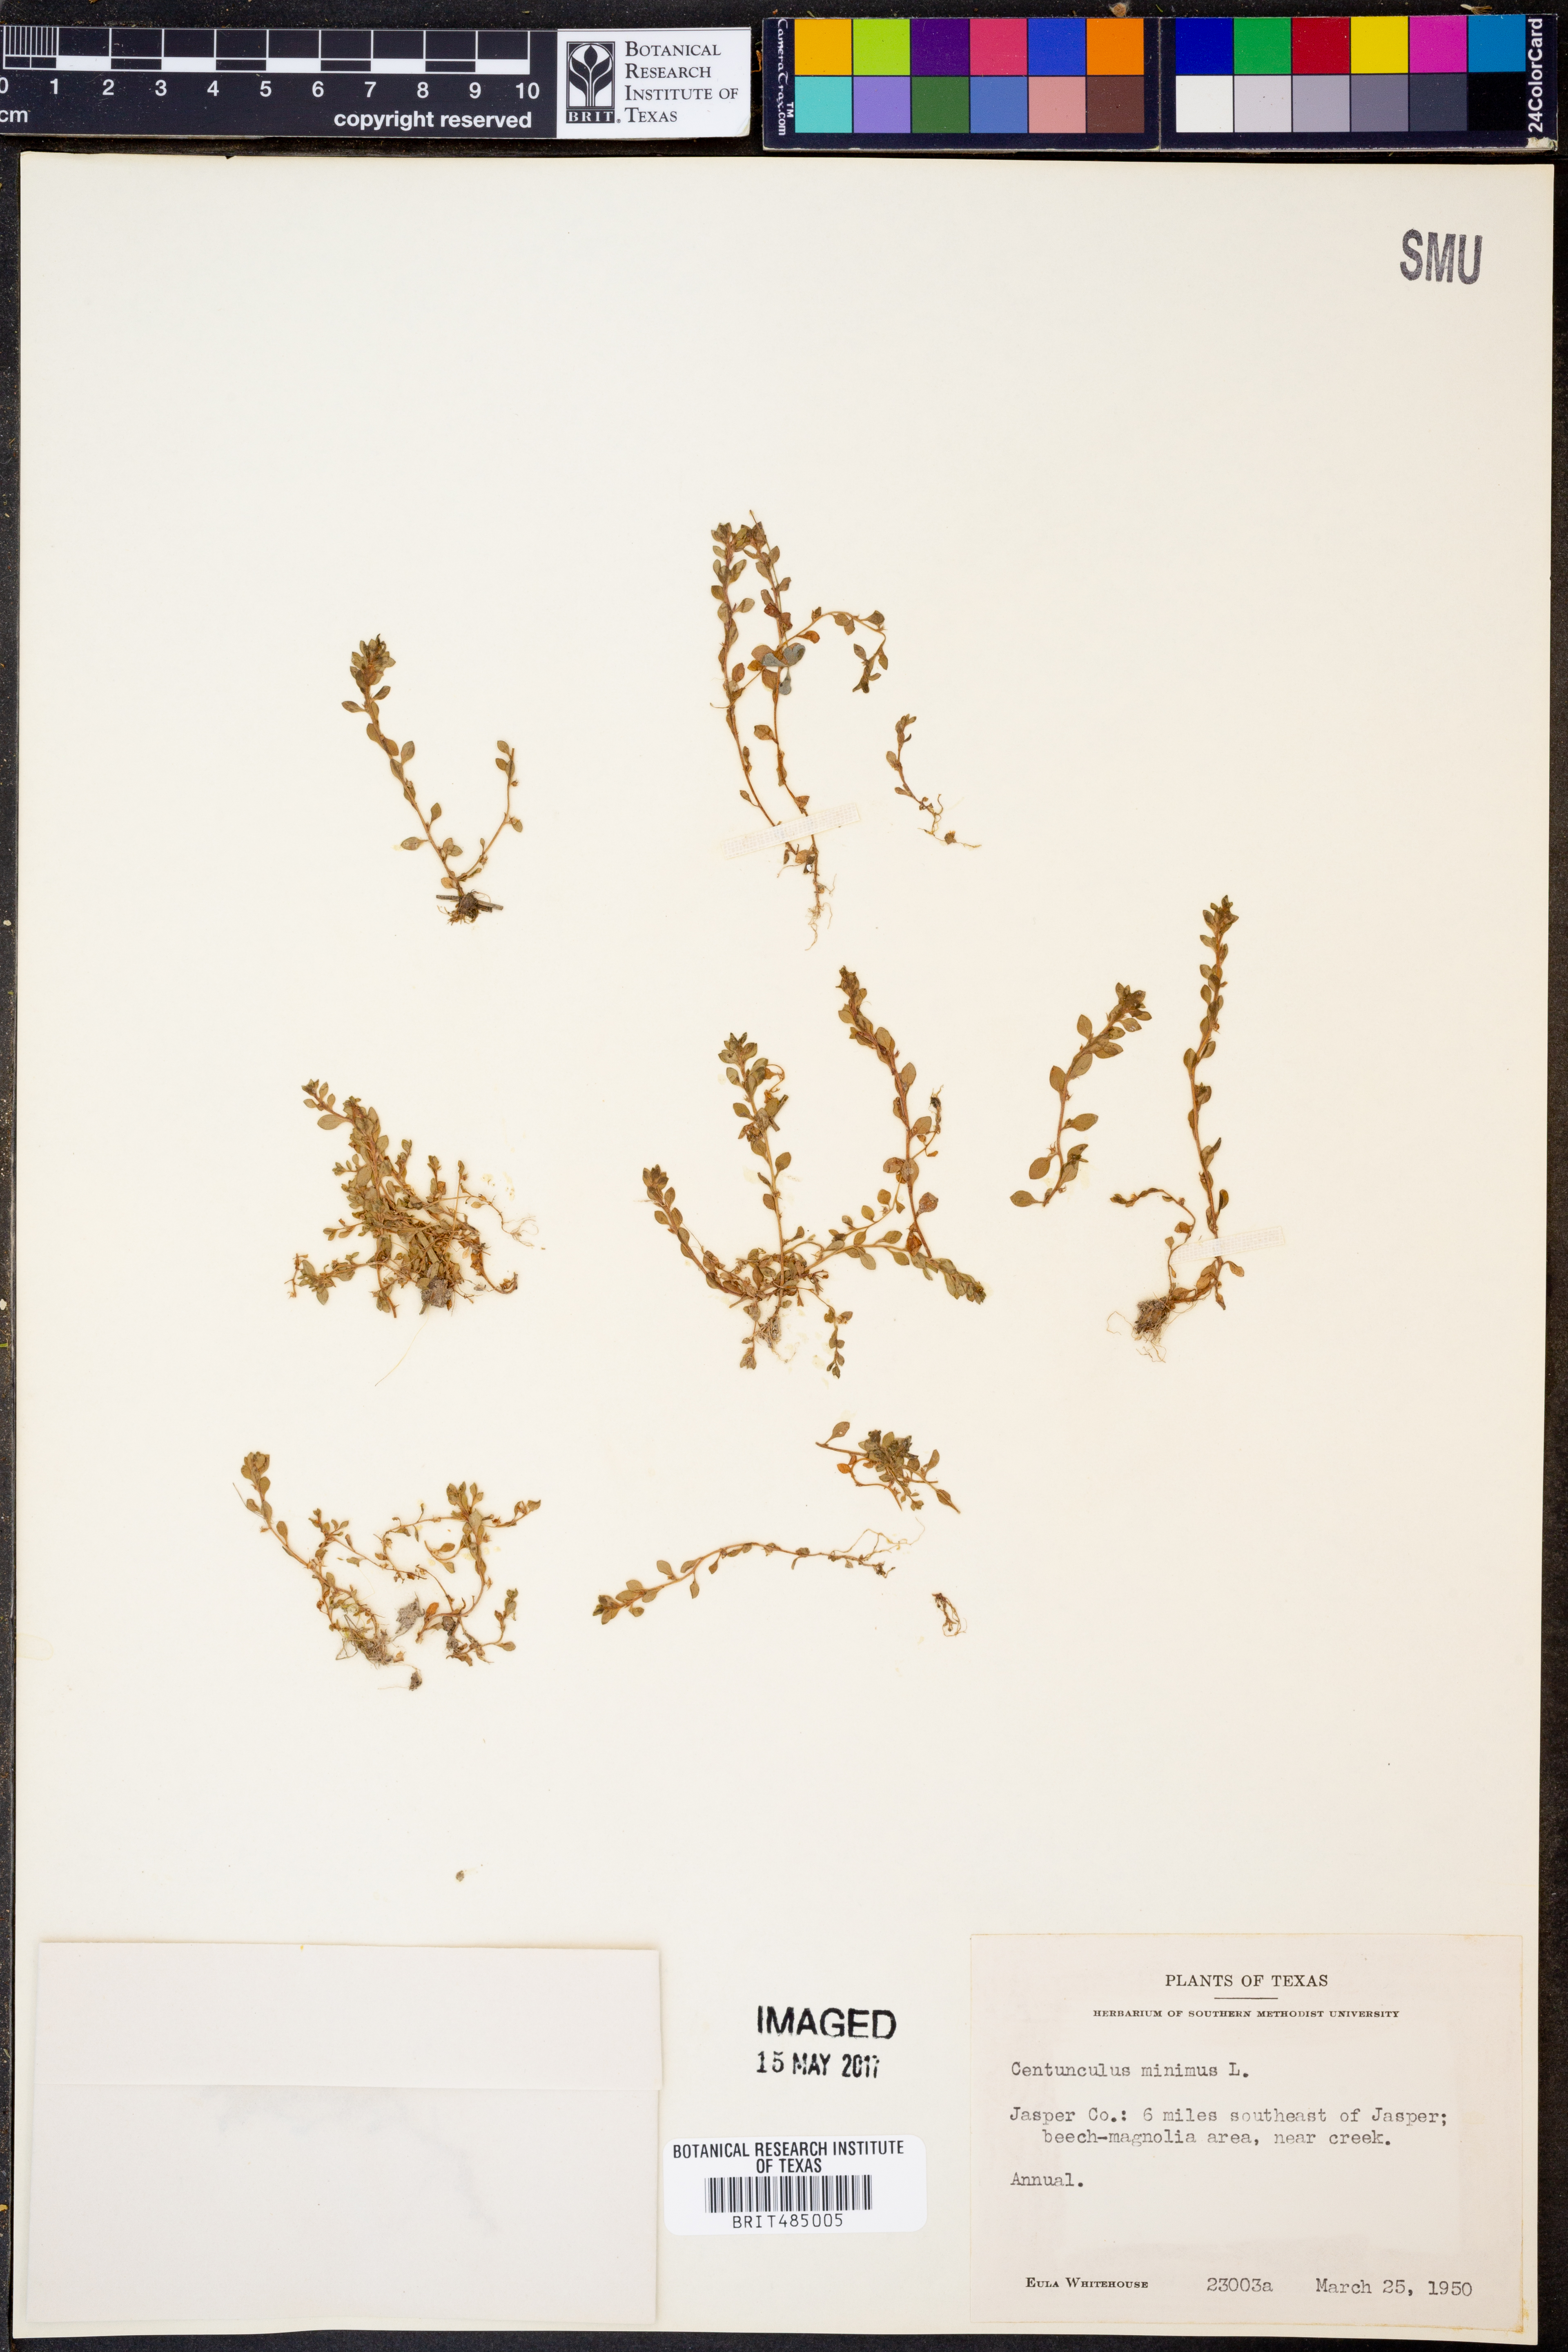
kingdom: Plantae
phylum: Tracheophyta
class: Magnoliopsida
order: Ericales
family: Primulaceae
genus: Lysimachia
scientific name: Lysimachia minima
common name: Chaffweed
